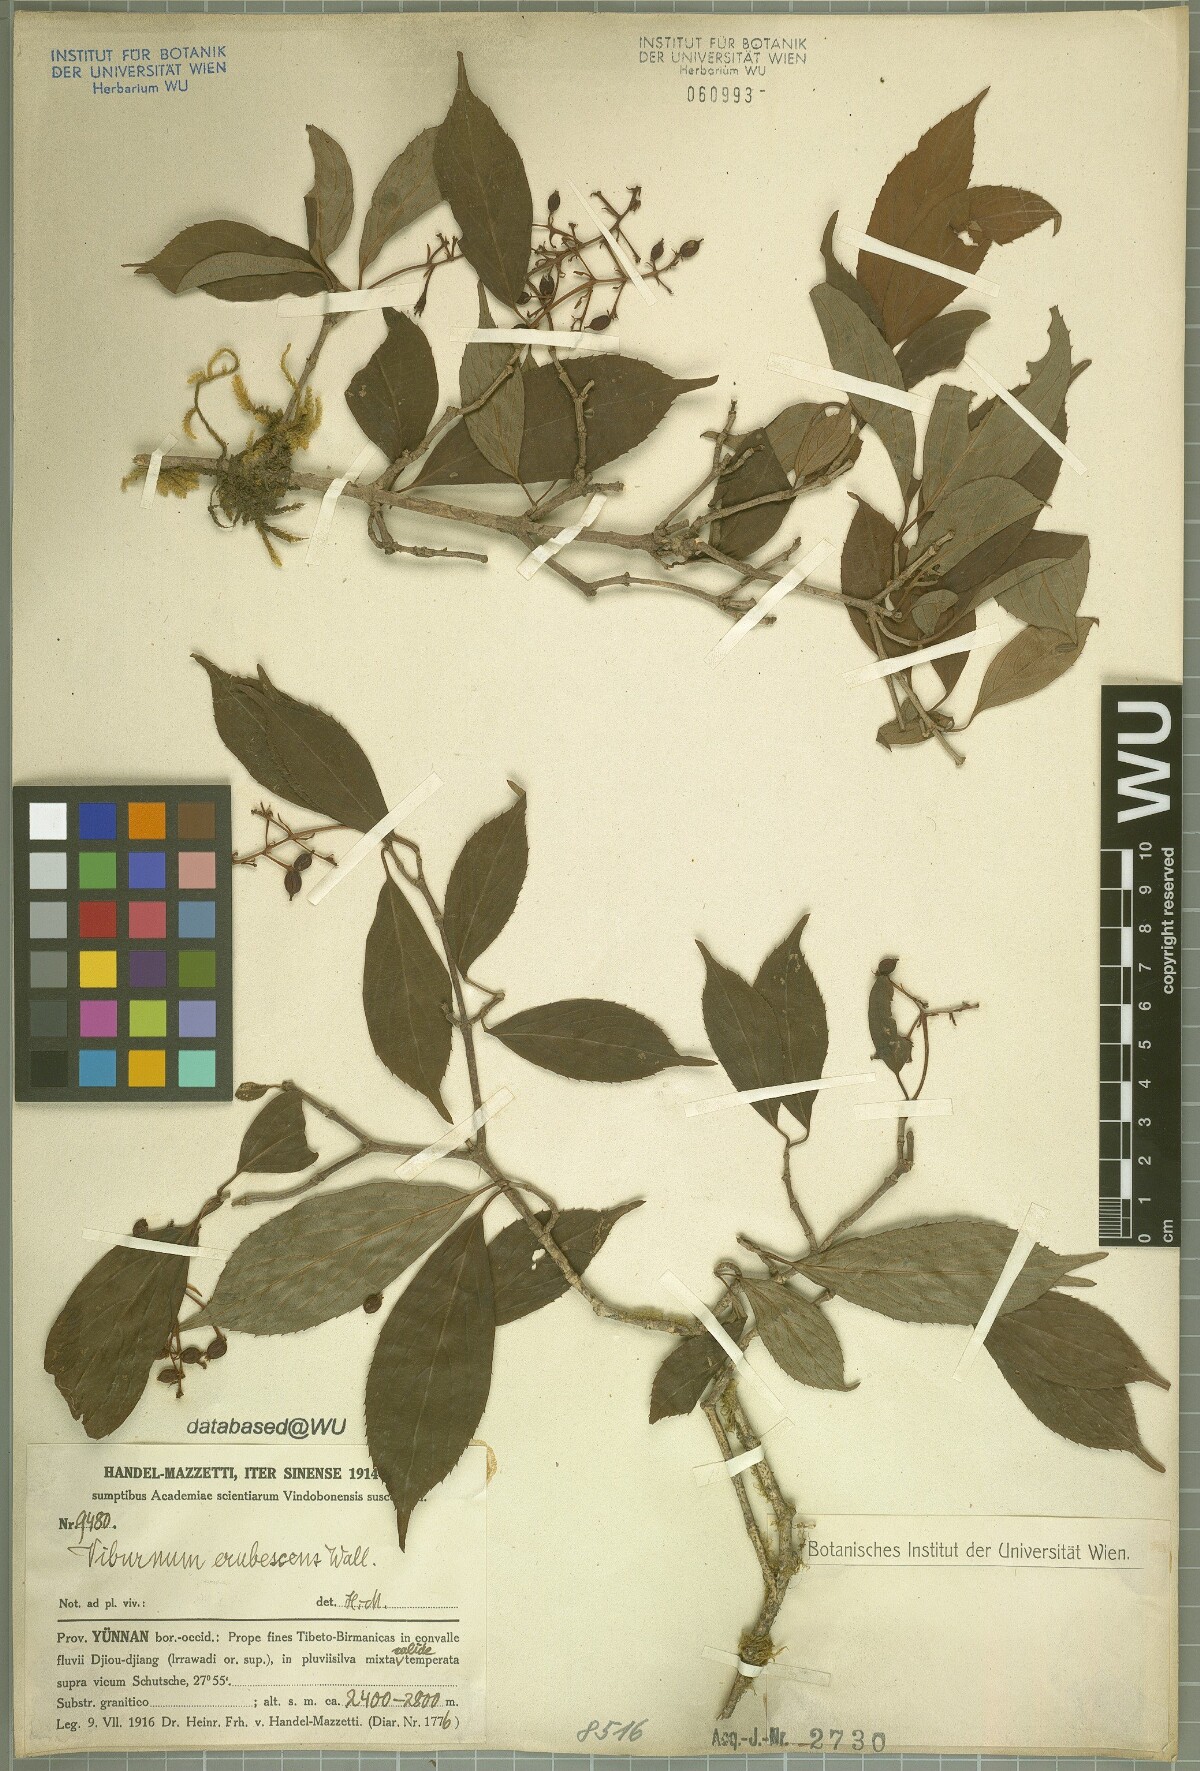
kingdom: Plantae
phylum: Tracheophyta
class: Magnoliopsida
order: Dipsacales
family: Viburnaceae
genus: Viburnum
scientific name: Viburnum erubescens
